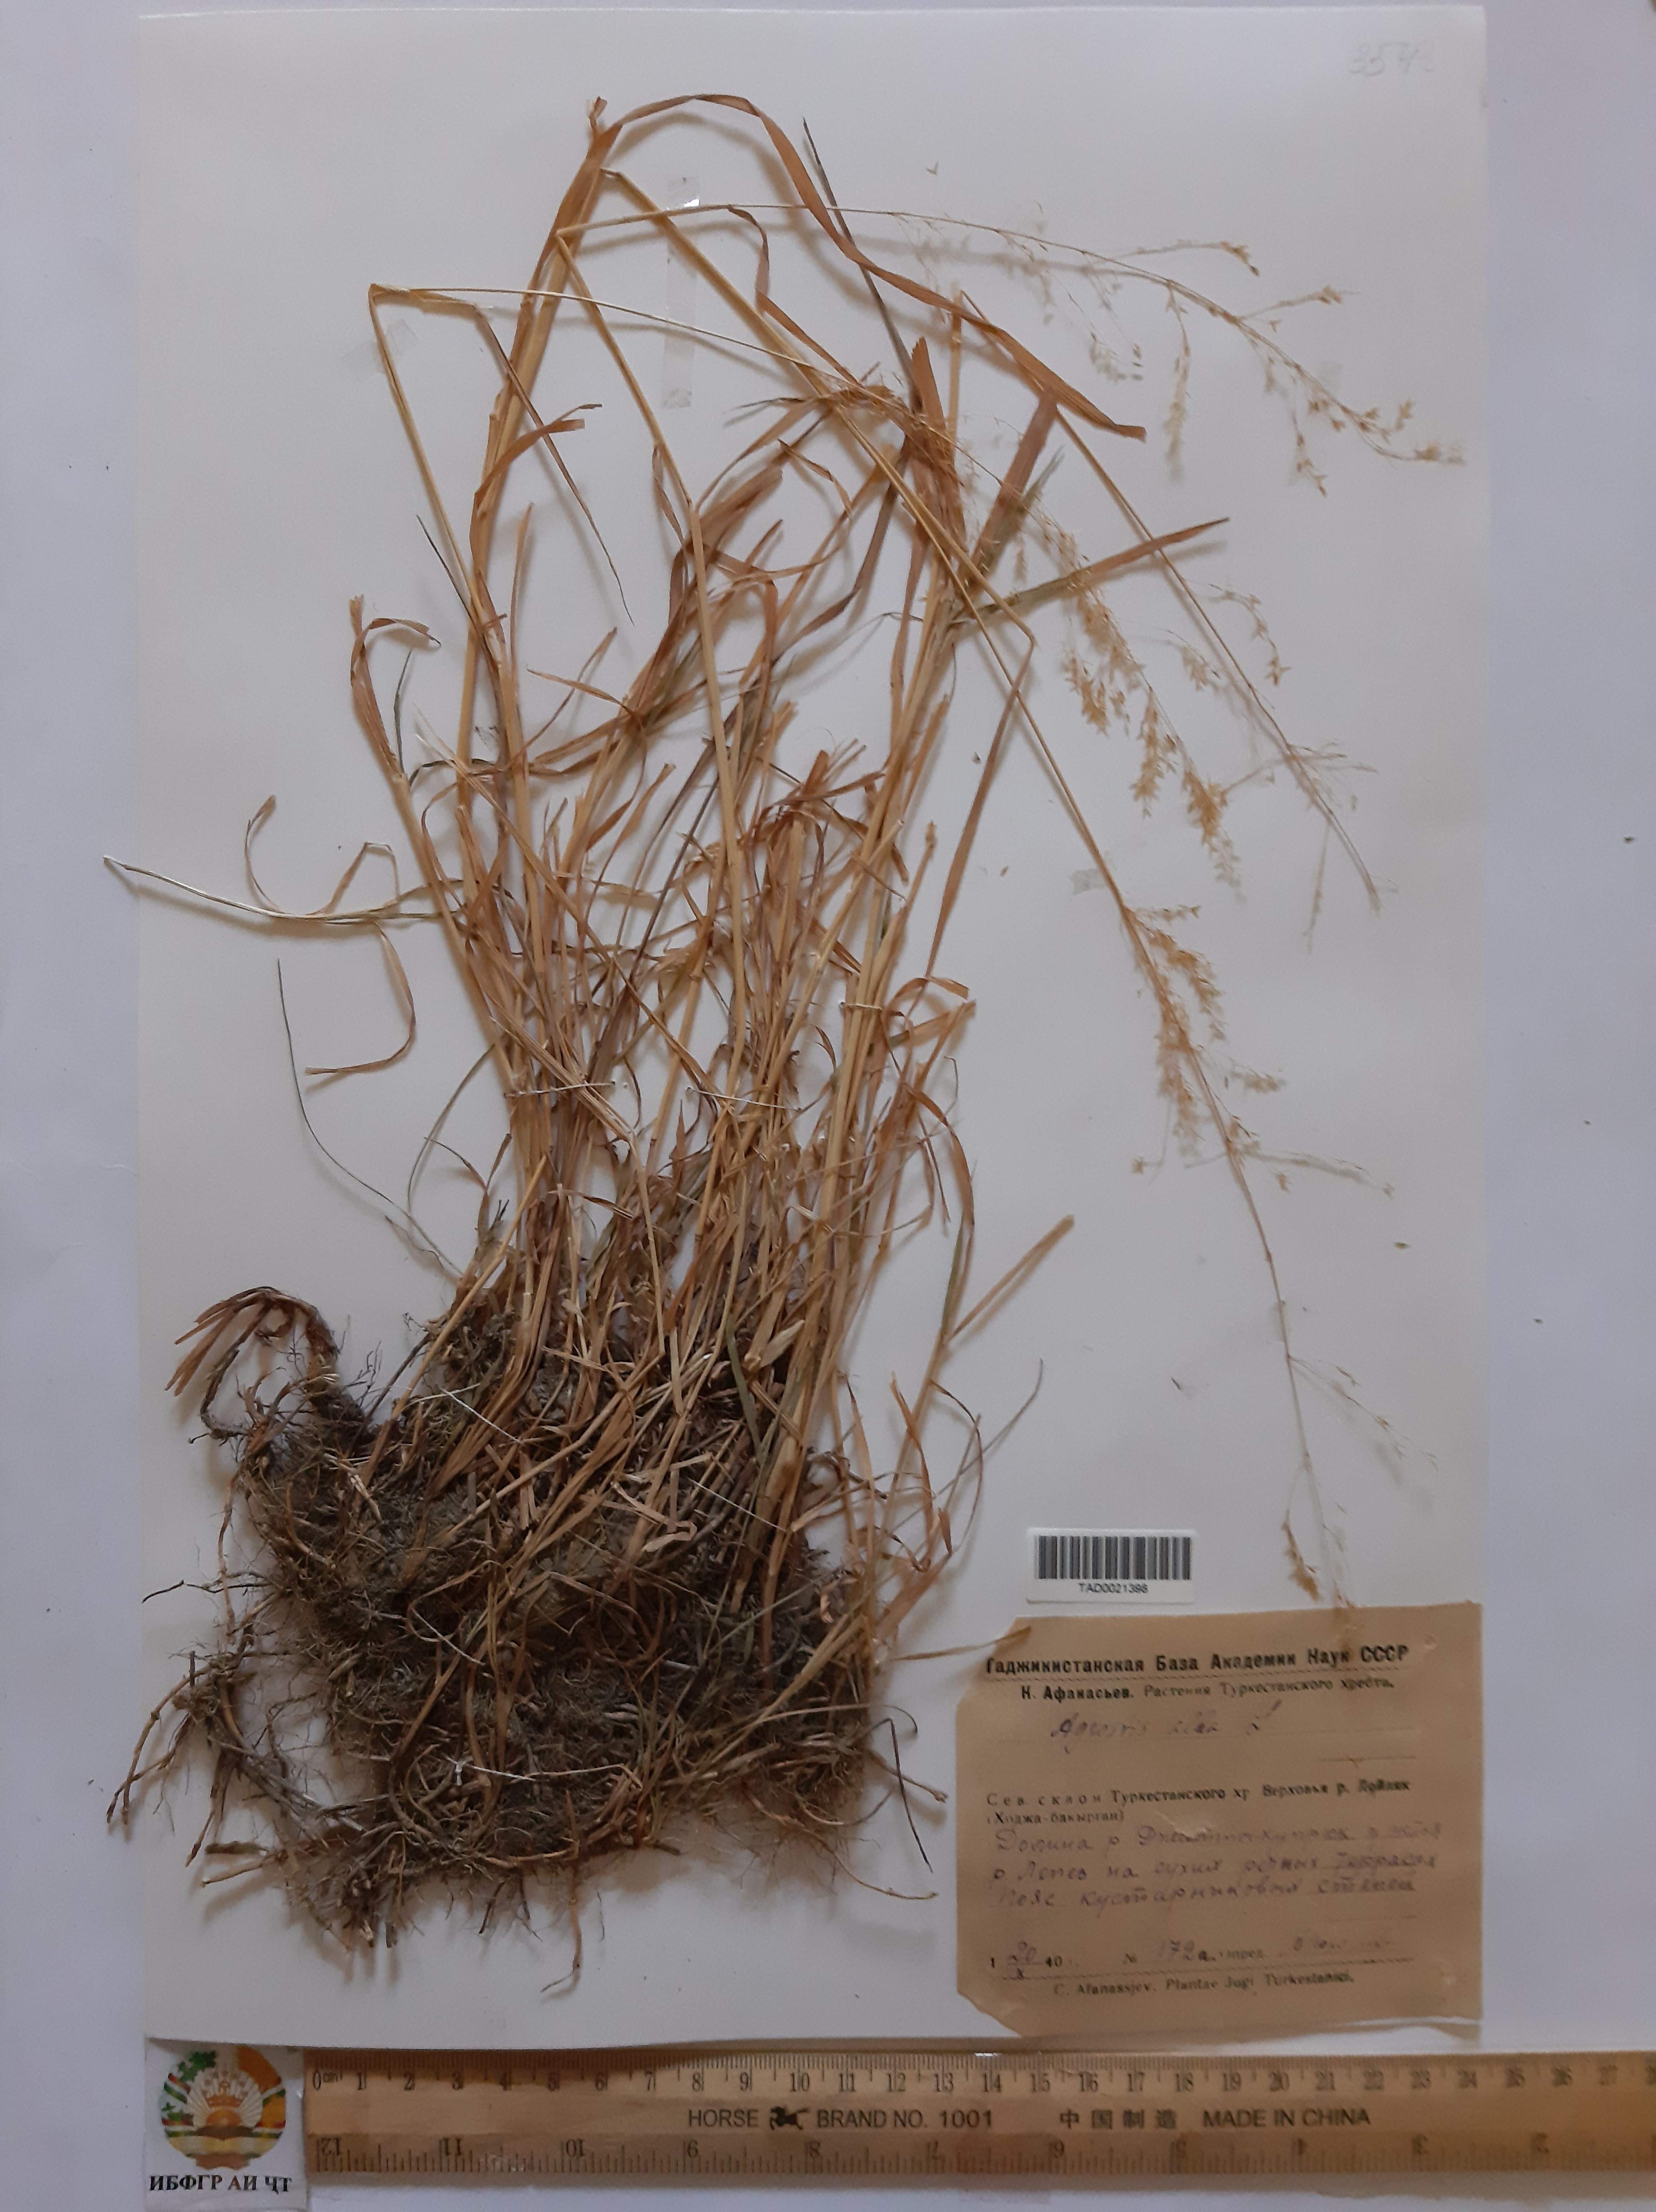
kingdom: Plantae
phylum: Tracheophyta
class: Liliopsida
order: Poales
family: Poaceae
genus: Poa
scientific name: Poa nemoralis
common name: Wood bluegrass
